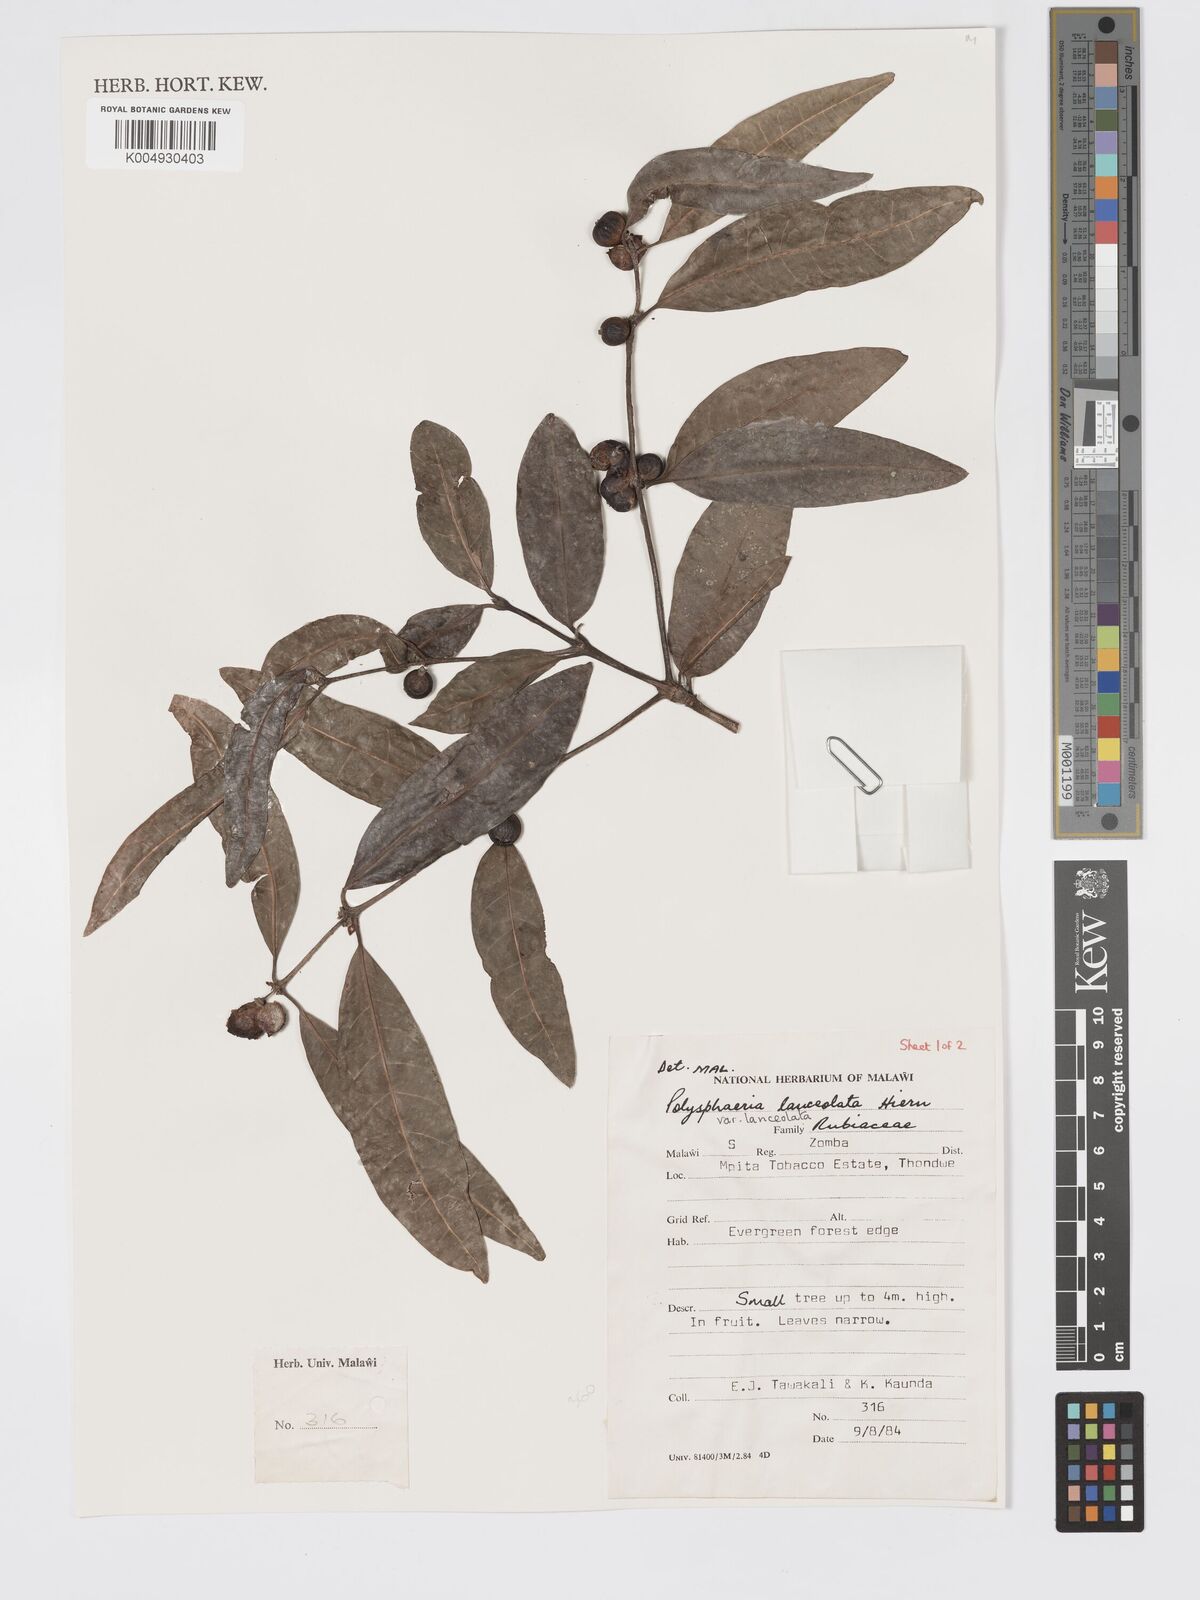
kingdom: Plantae
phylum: Tracheophyta
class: Magnoliopsida
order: Gentianales
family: Rubiaceae
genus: Polysphaeria
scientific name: Polysphaeria lanceolata
